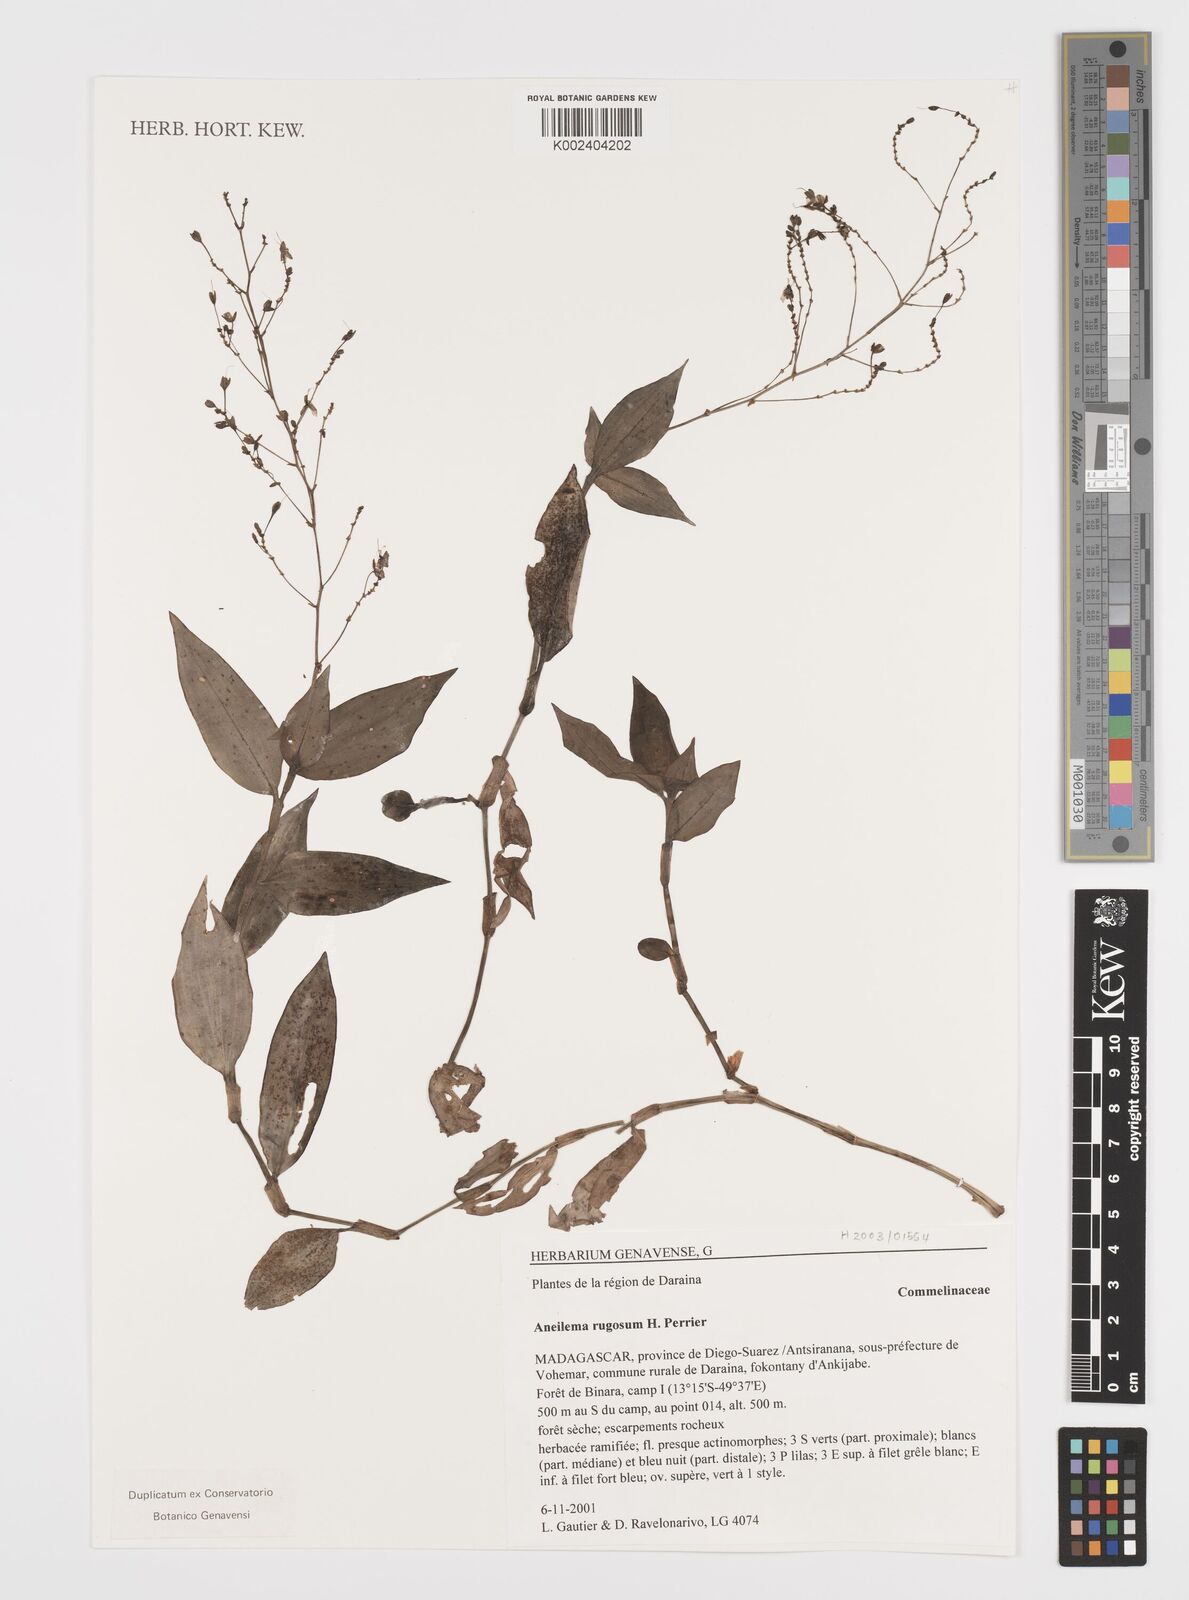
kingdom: Plantae
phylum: Tracheophyta
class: Liliopsida
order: Commelinales
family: Commelinaceae
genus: Rhopalephora
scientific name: Rhopalephora rugosa
